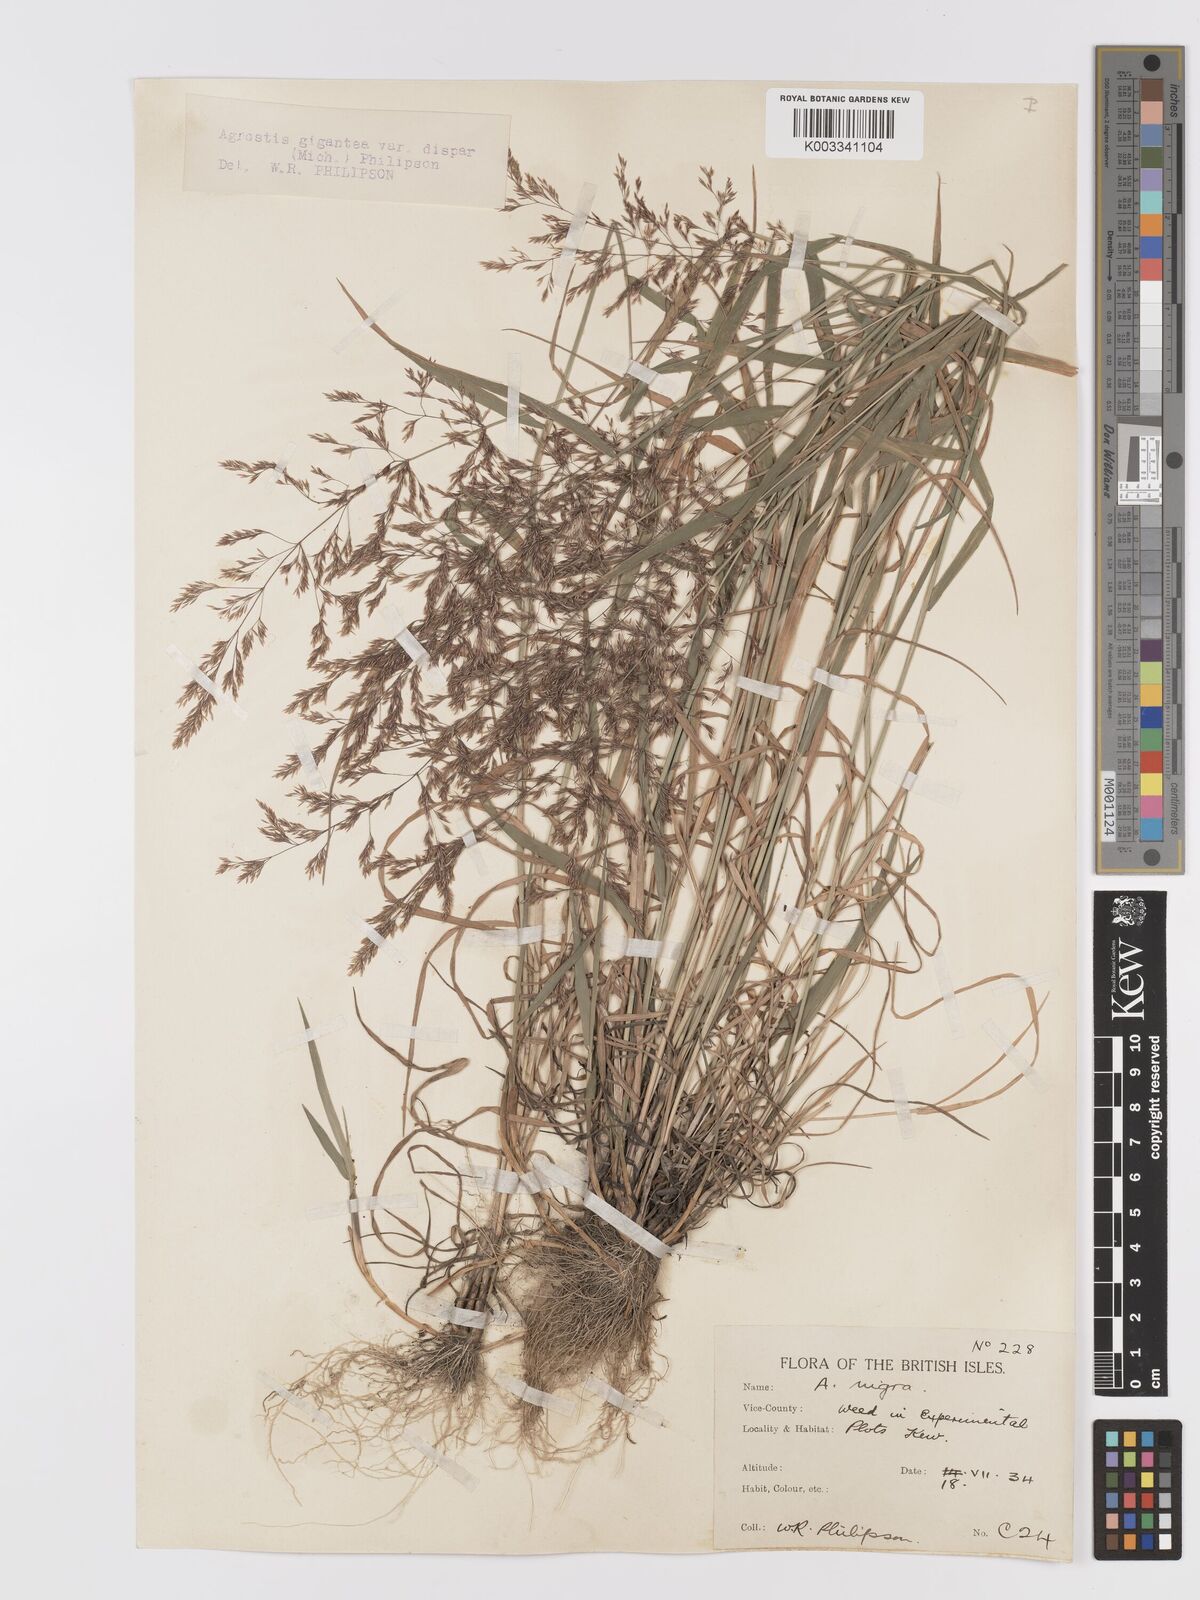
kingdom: Plantae
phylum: Tracheophyta
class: Liliopsida
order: Poales
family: Poaceae
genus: Agrostis
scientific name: Agrostis gigantea
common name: Black bent
